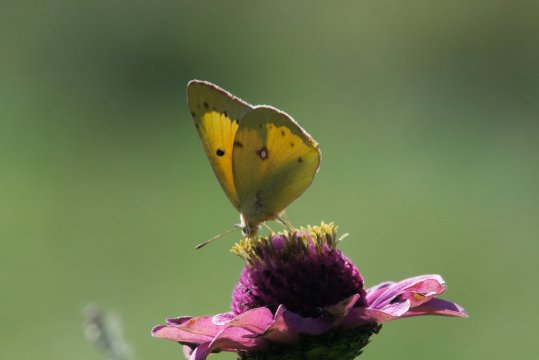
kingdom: Animalia
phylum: Arthropoda
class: Insecta
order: Lepidoptera
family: Pieridae
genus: Colias
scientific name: Colias eurytheme
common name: Orange Sulphur
